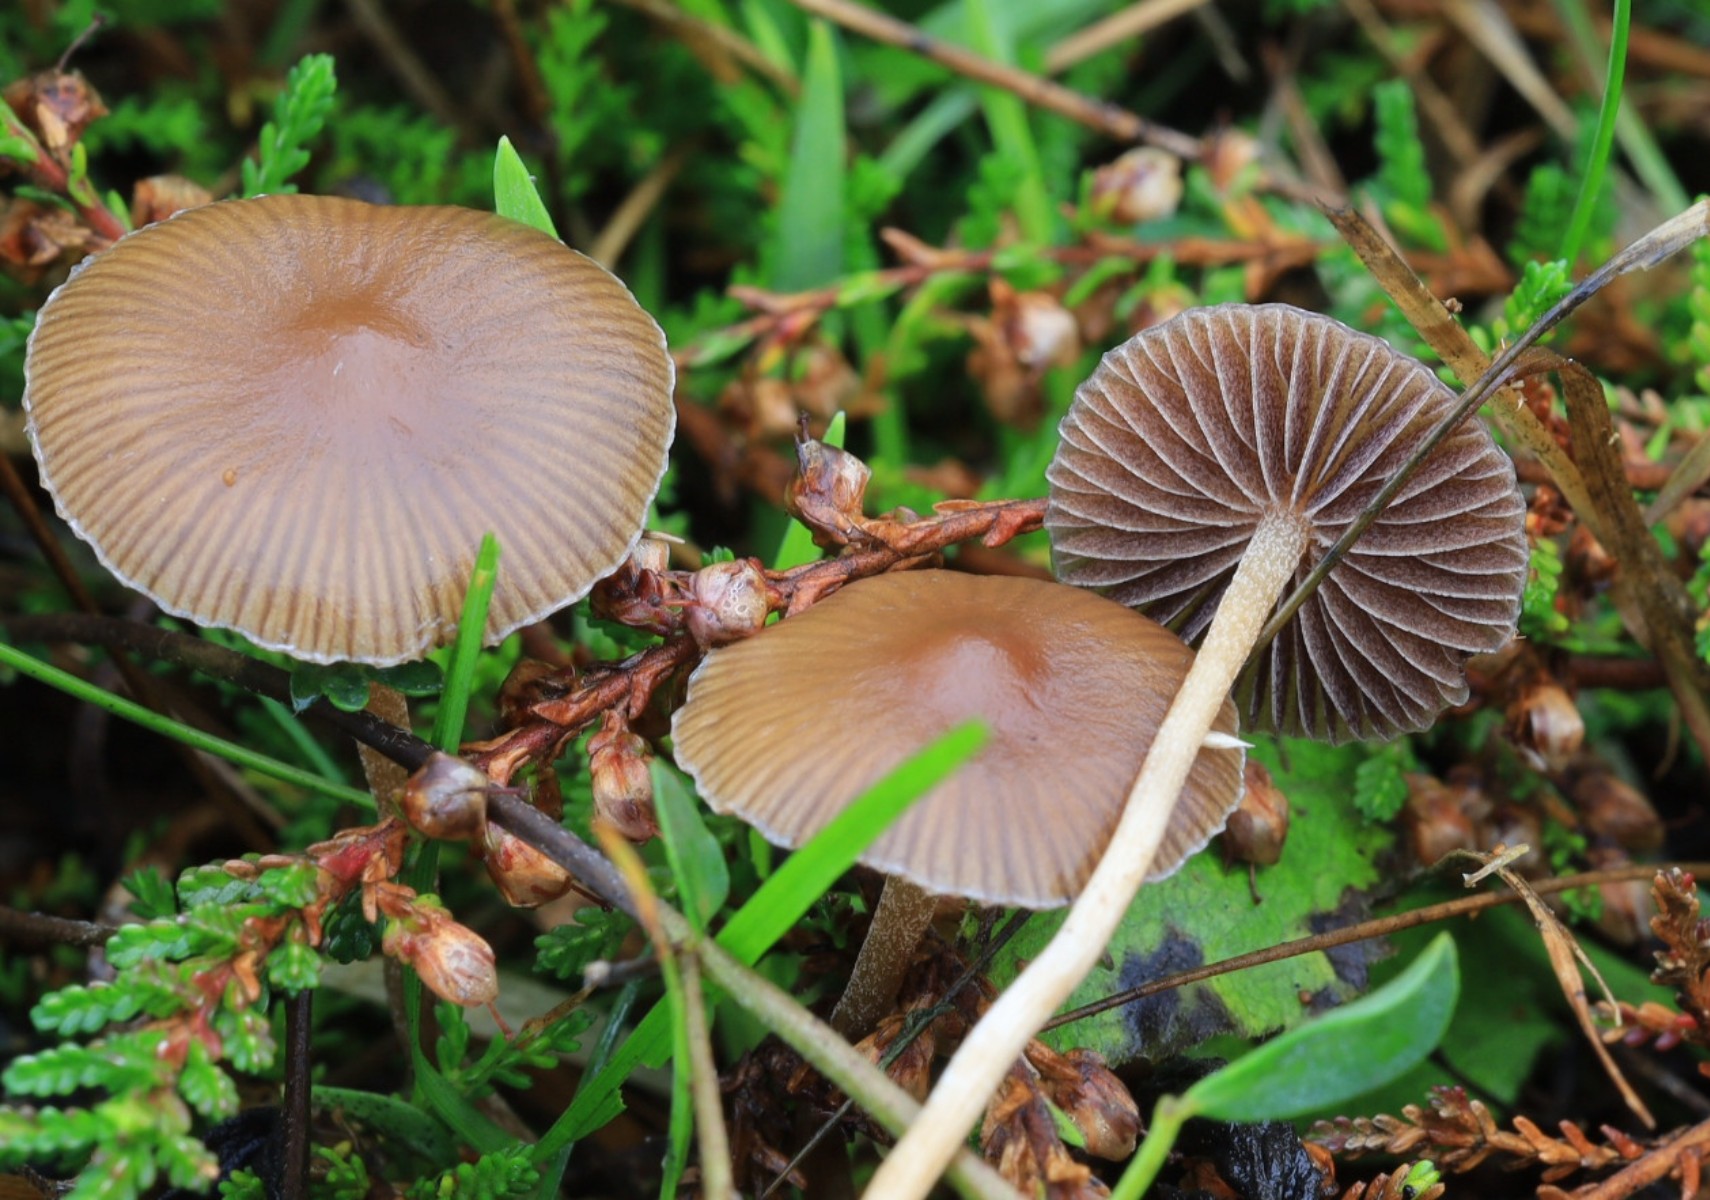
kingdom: Fungi
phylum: Basidiomycota
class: Agaricomycetes
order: Agaricales
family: Hymenogastraceae
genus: Psilocybe
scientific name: Psilocybe fimetaria
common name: prægtig nøgenhat
